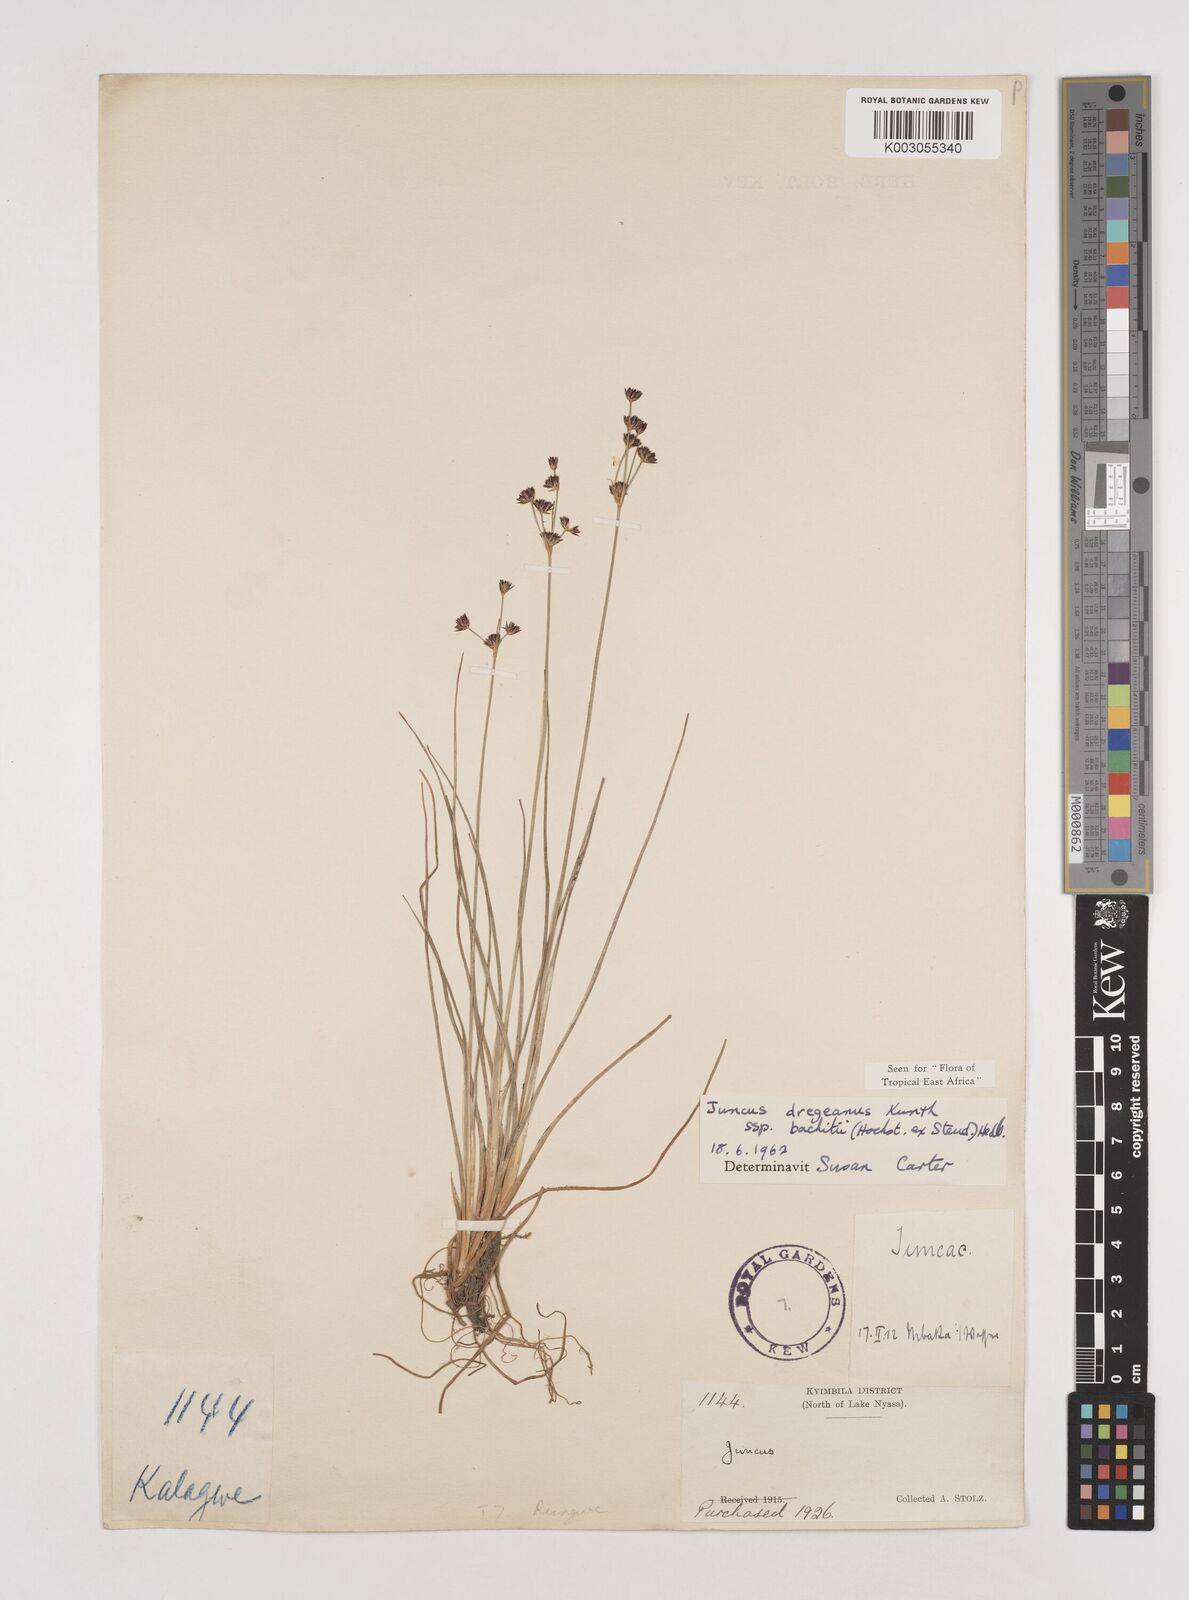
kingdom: Plantae
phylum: Tracheophyta
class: Liliopsida
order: Poales
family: Juncaceae
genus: Juncus
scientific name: Juncus dregeanus
